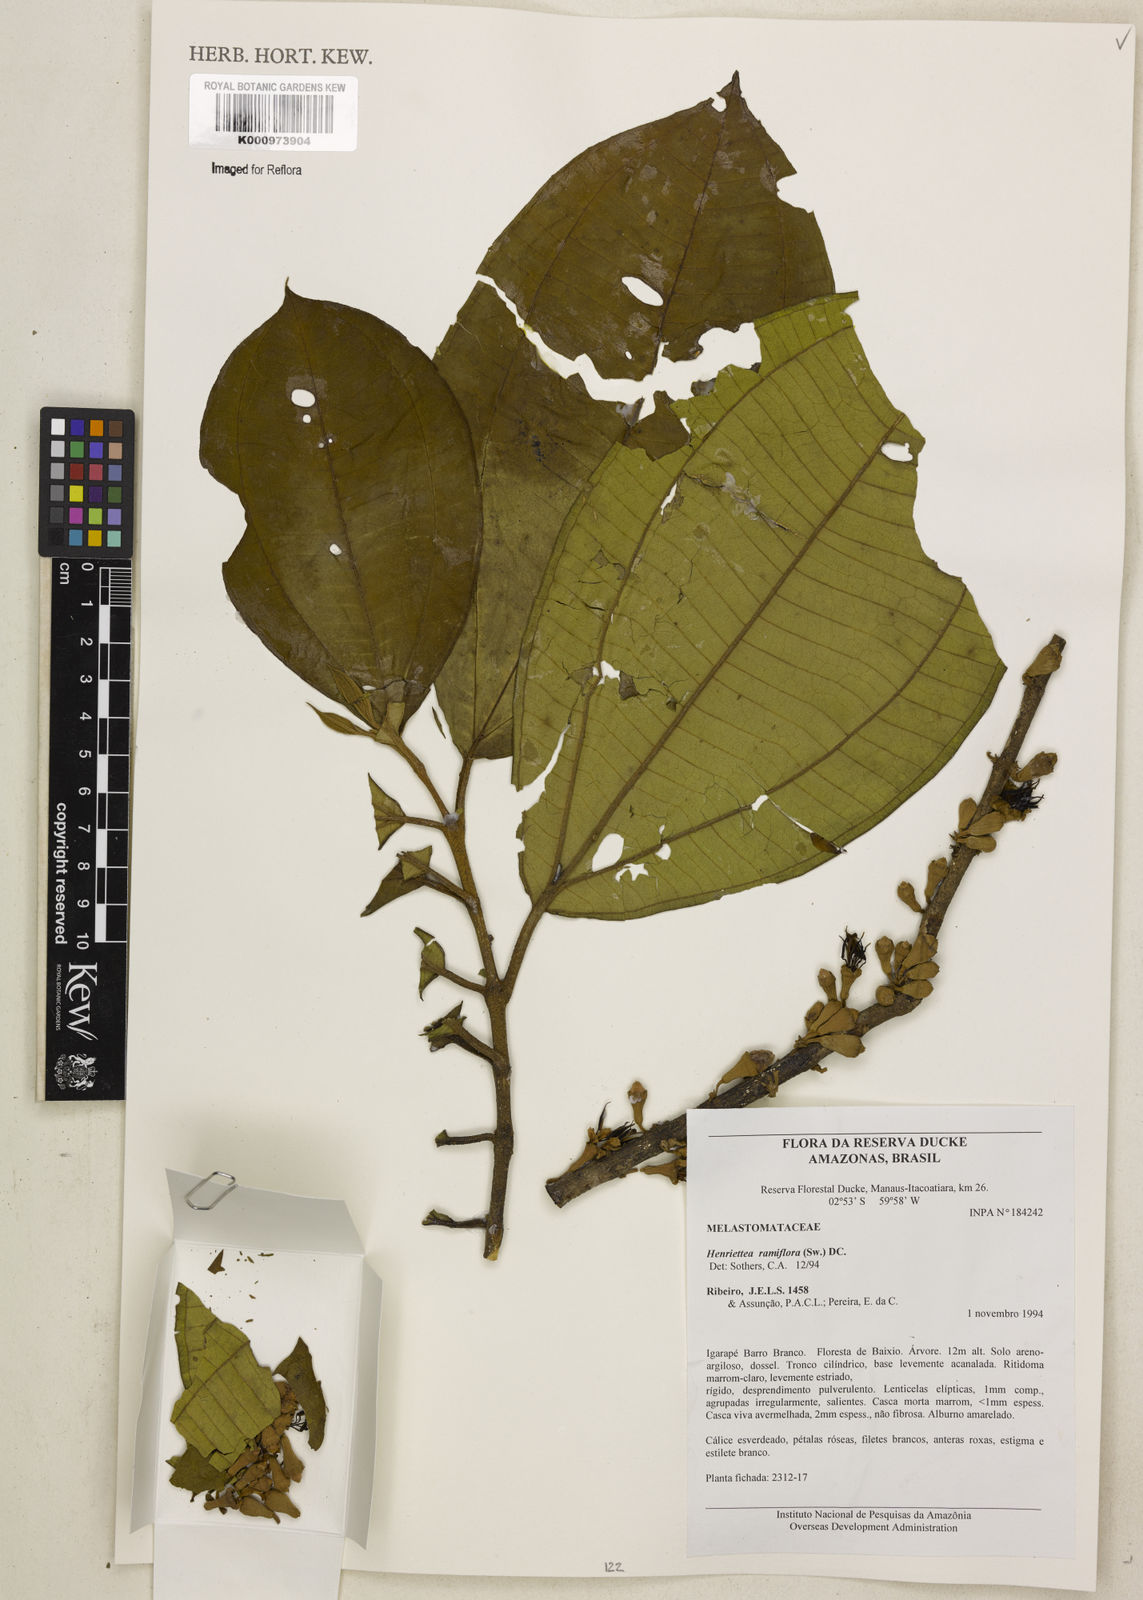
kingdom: Plantae
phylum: Tracheophyta
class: Magnoliopsida
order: Myrtales
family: Melastomataceae
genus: Henriettea
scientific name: Henriettea ramiflora
